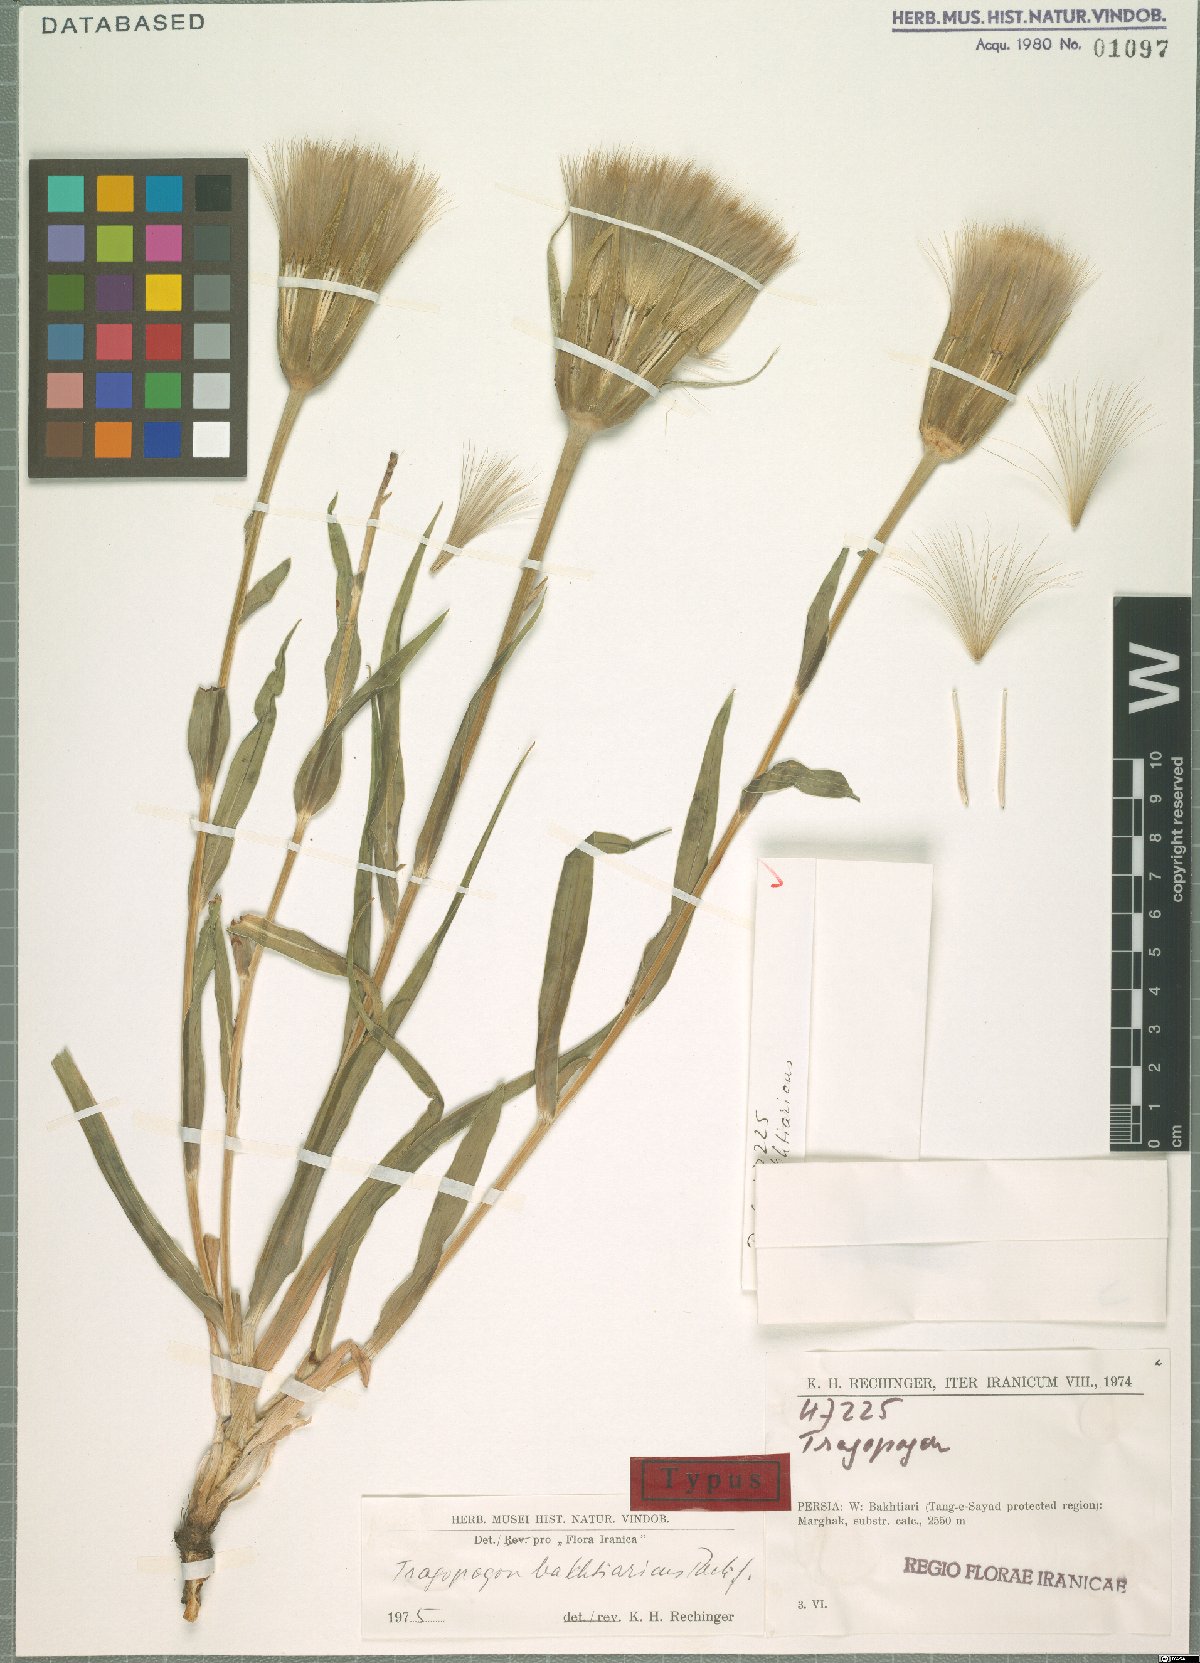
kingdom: Plantae
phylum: Tracheophyta
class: Magnoliopsida
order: Asterales
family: Asteraceae
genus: Tragopogon
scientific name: Tragopogon bakhtiaricus
